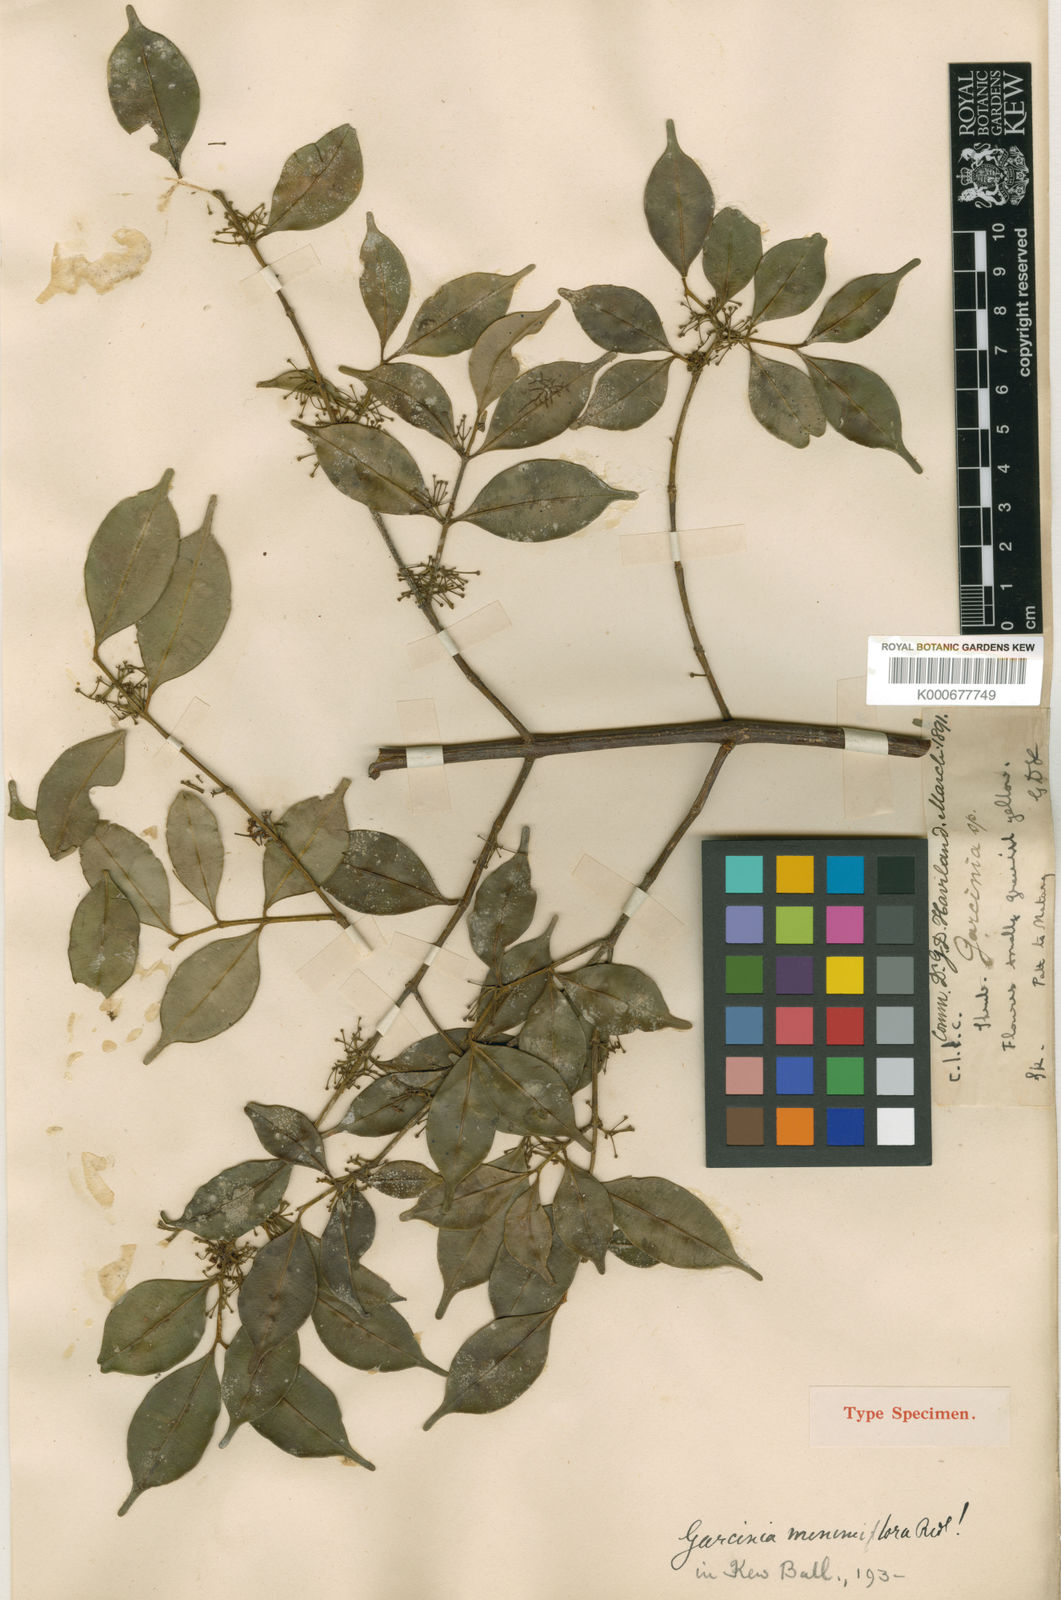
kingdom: Plantae
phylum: Tracheophyta
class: Magnoliopsida
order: Malpighiales
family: Clusiaceae
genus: Garcinia
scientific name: Garcinia minimiflora
